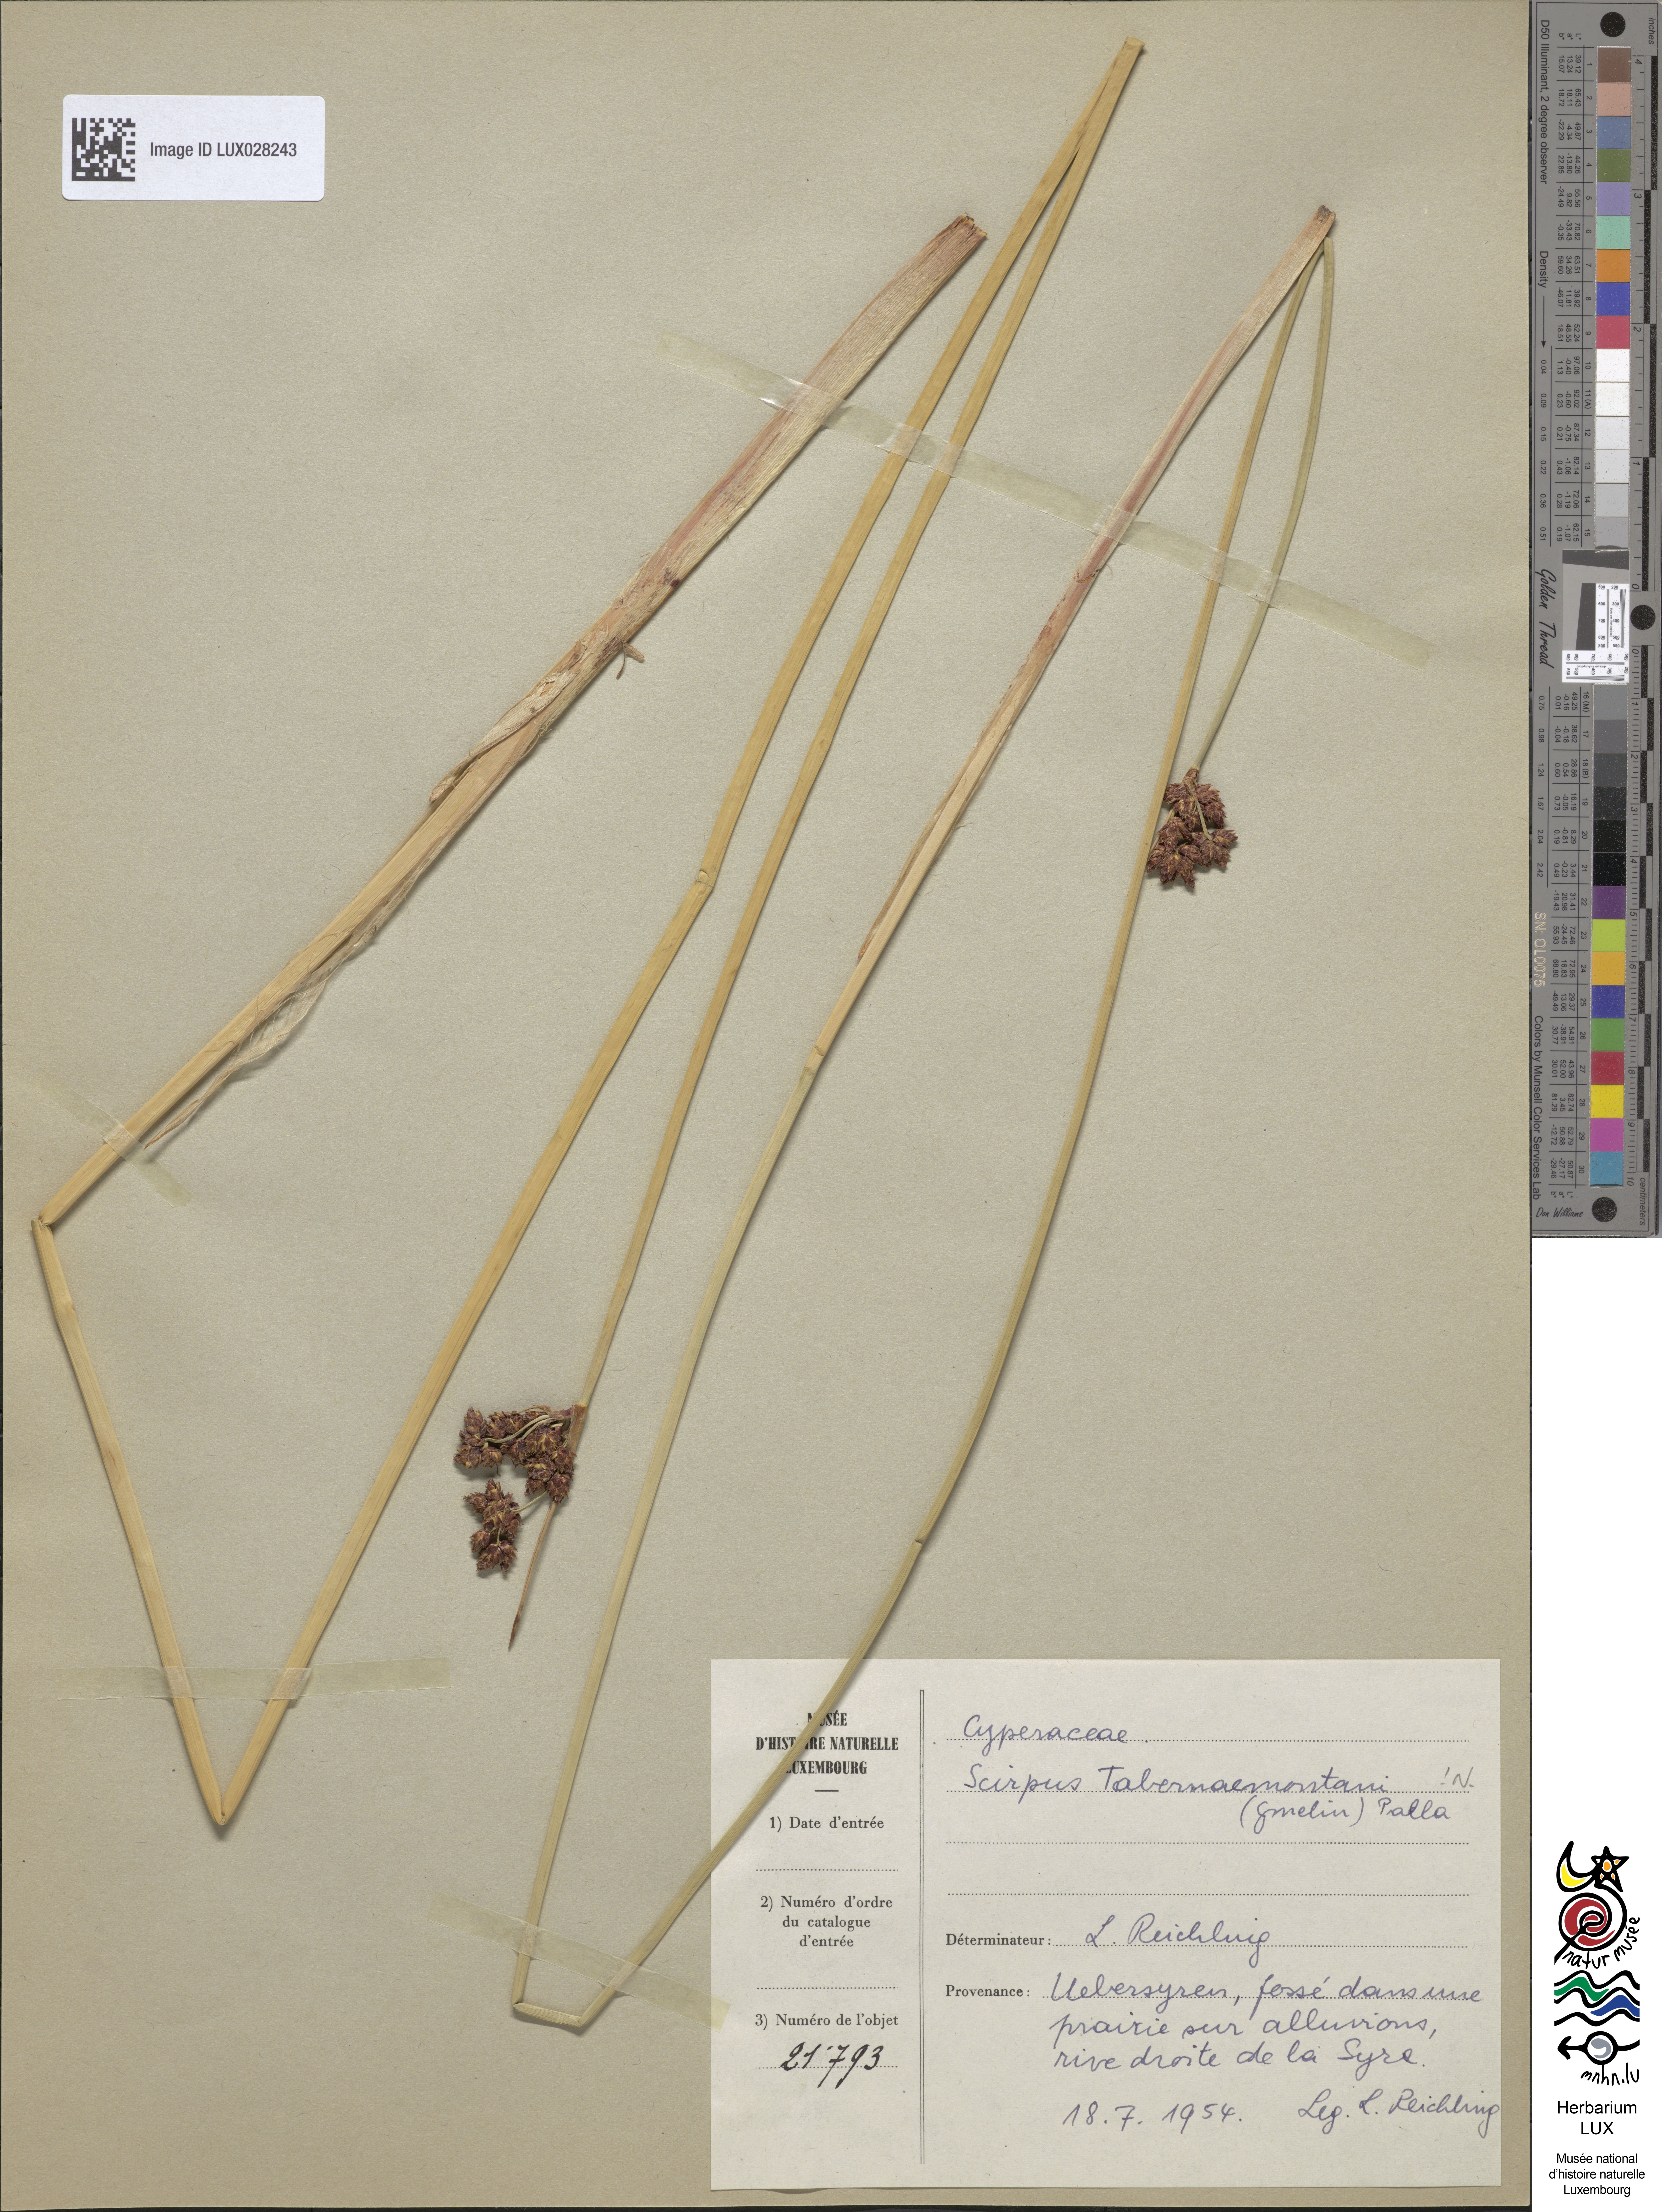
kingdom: Plantae
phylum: Tracheophyta
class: Liliopsida
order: Poales
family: Cyperaceae
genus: Schoenoplectus
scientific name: Schoenoplectus tabernaemontani
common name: Grey club-rush
